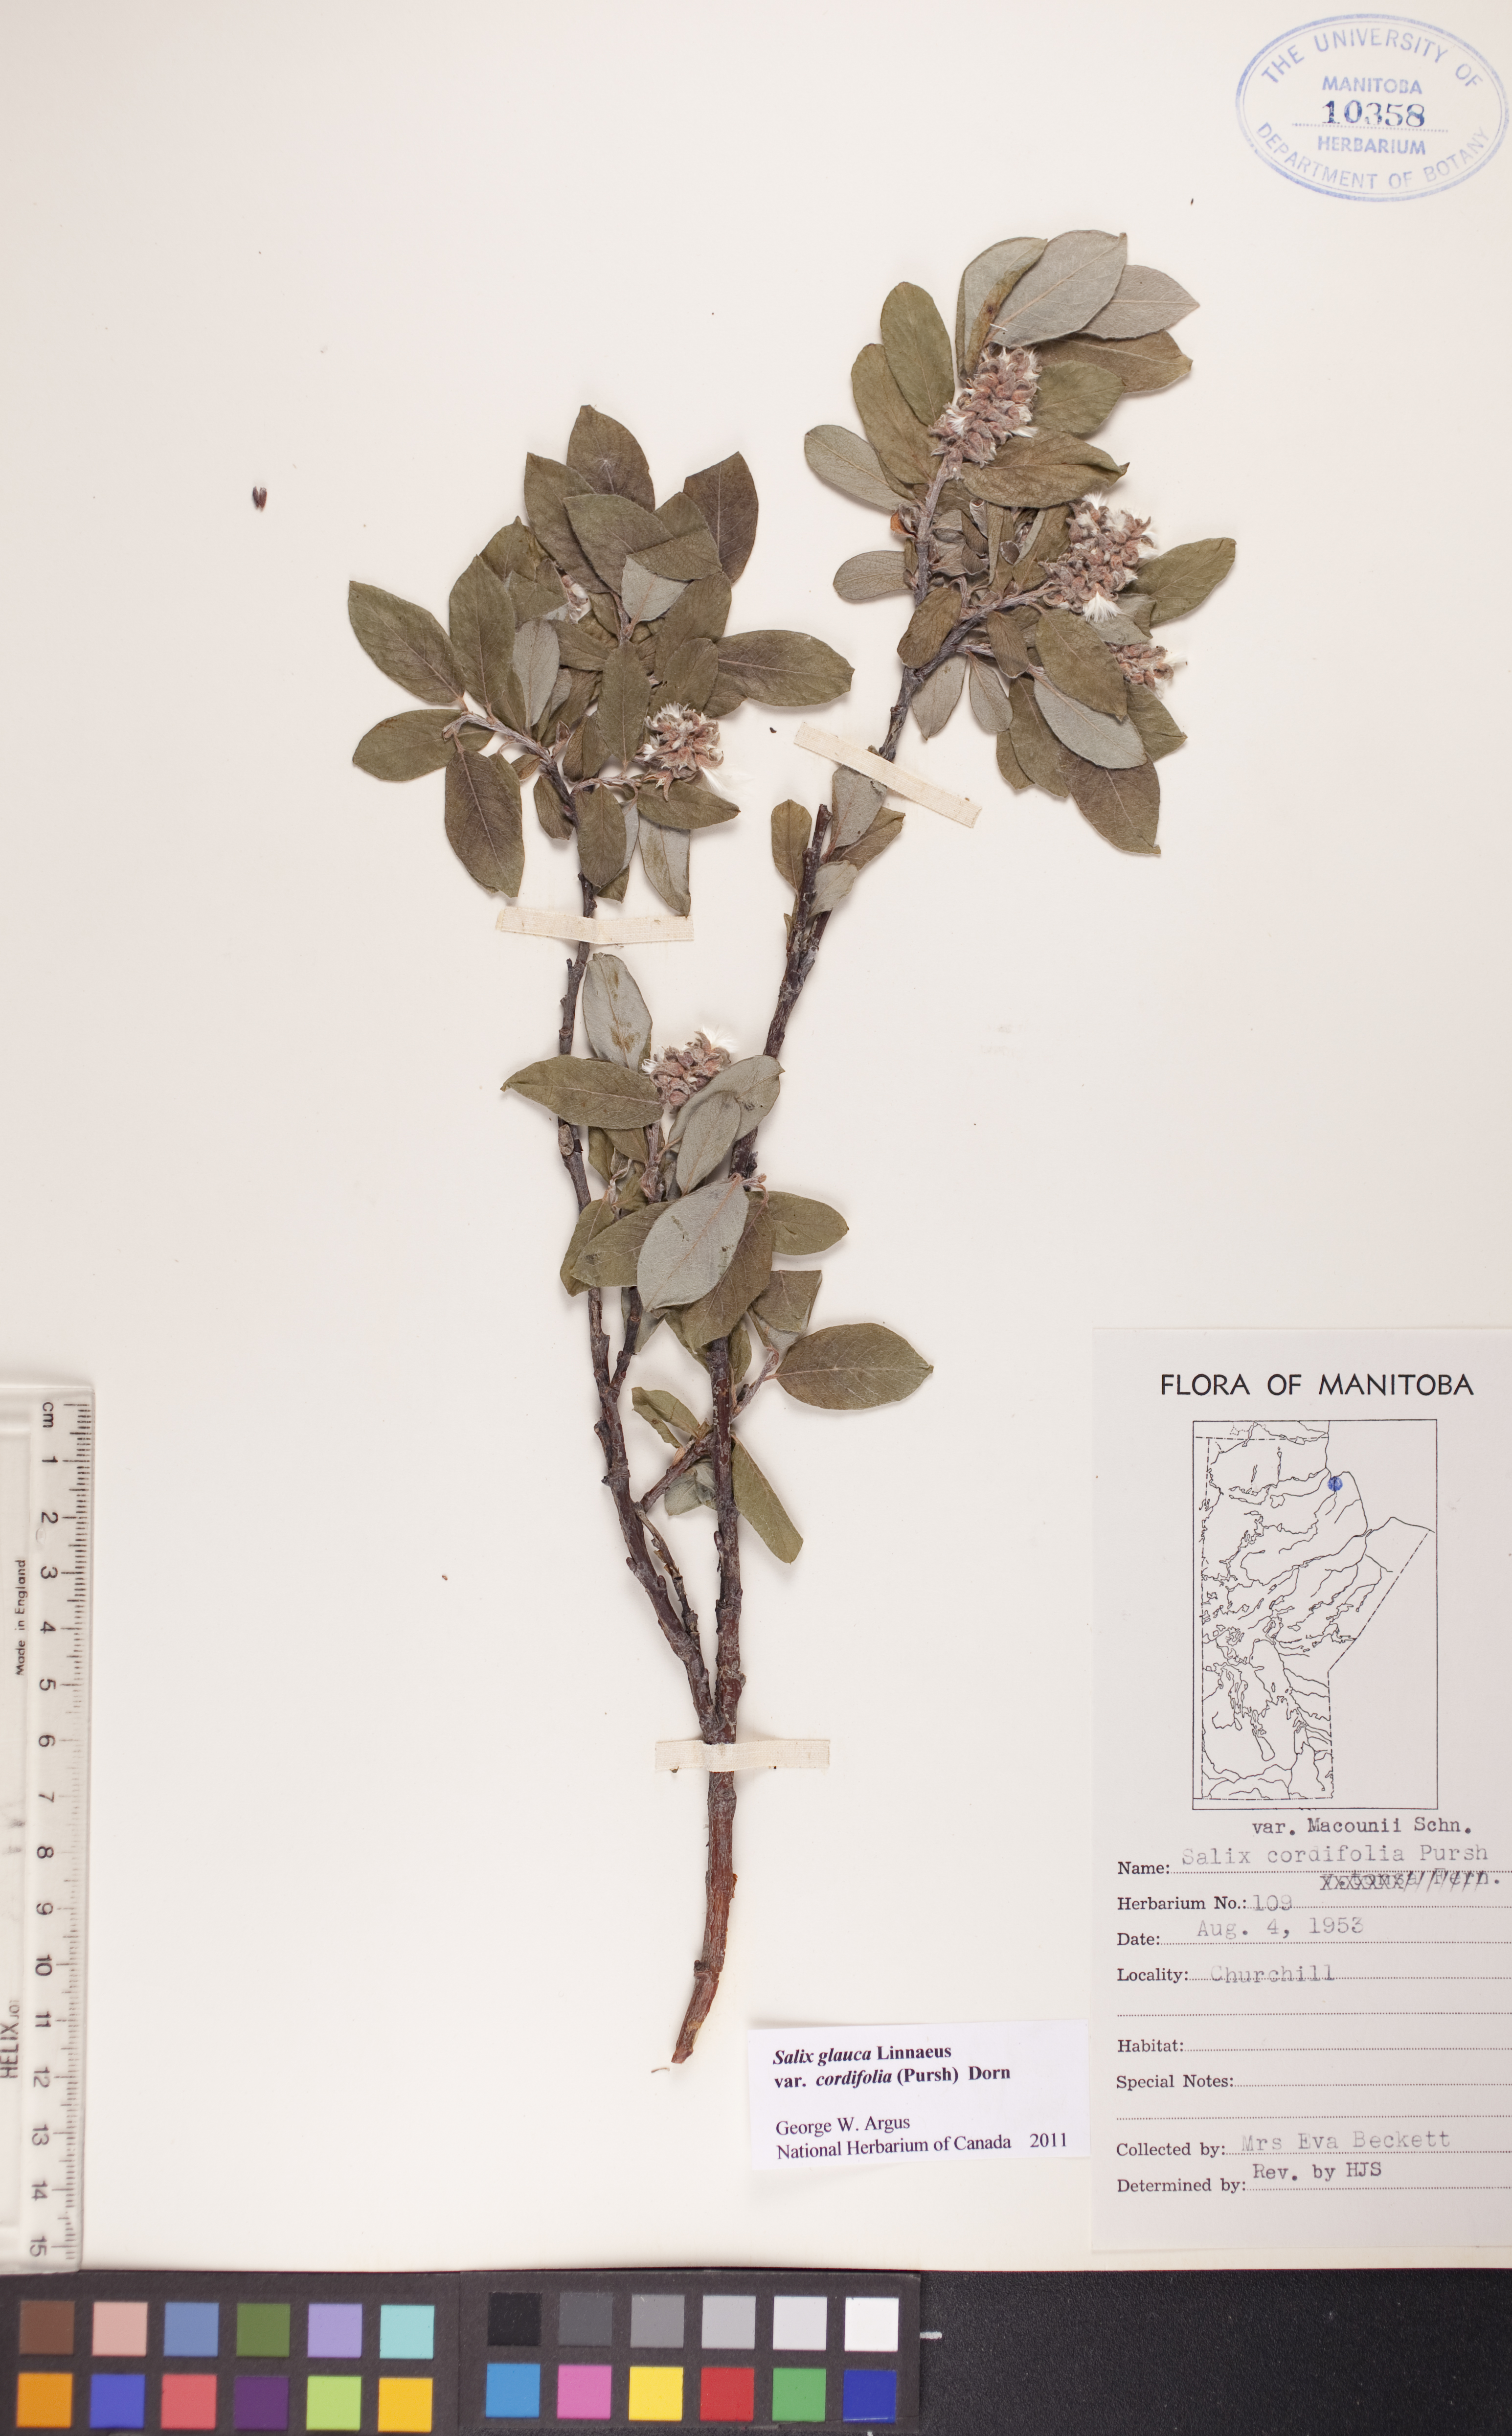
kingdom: Plantae
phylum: Tracheophyta
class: Magnoliopsida
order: Malpighiales
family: Salicaceae
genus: Salix
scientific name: Salix glauca
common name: Glaucous willow
